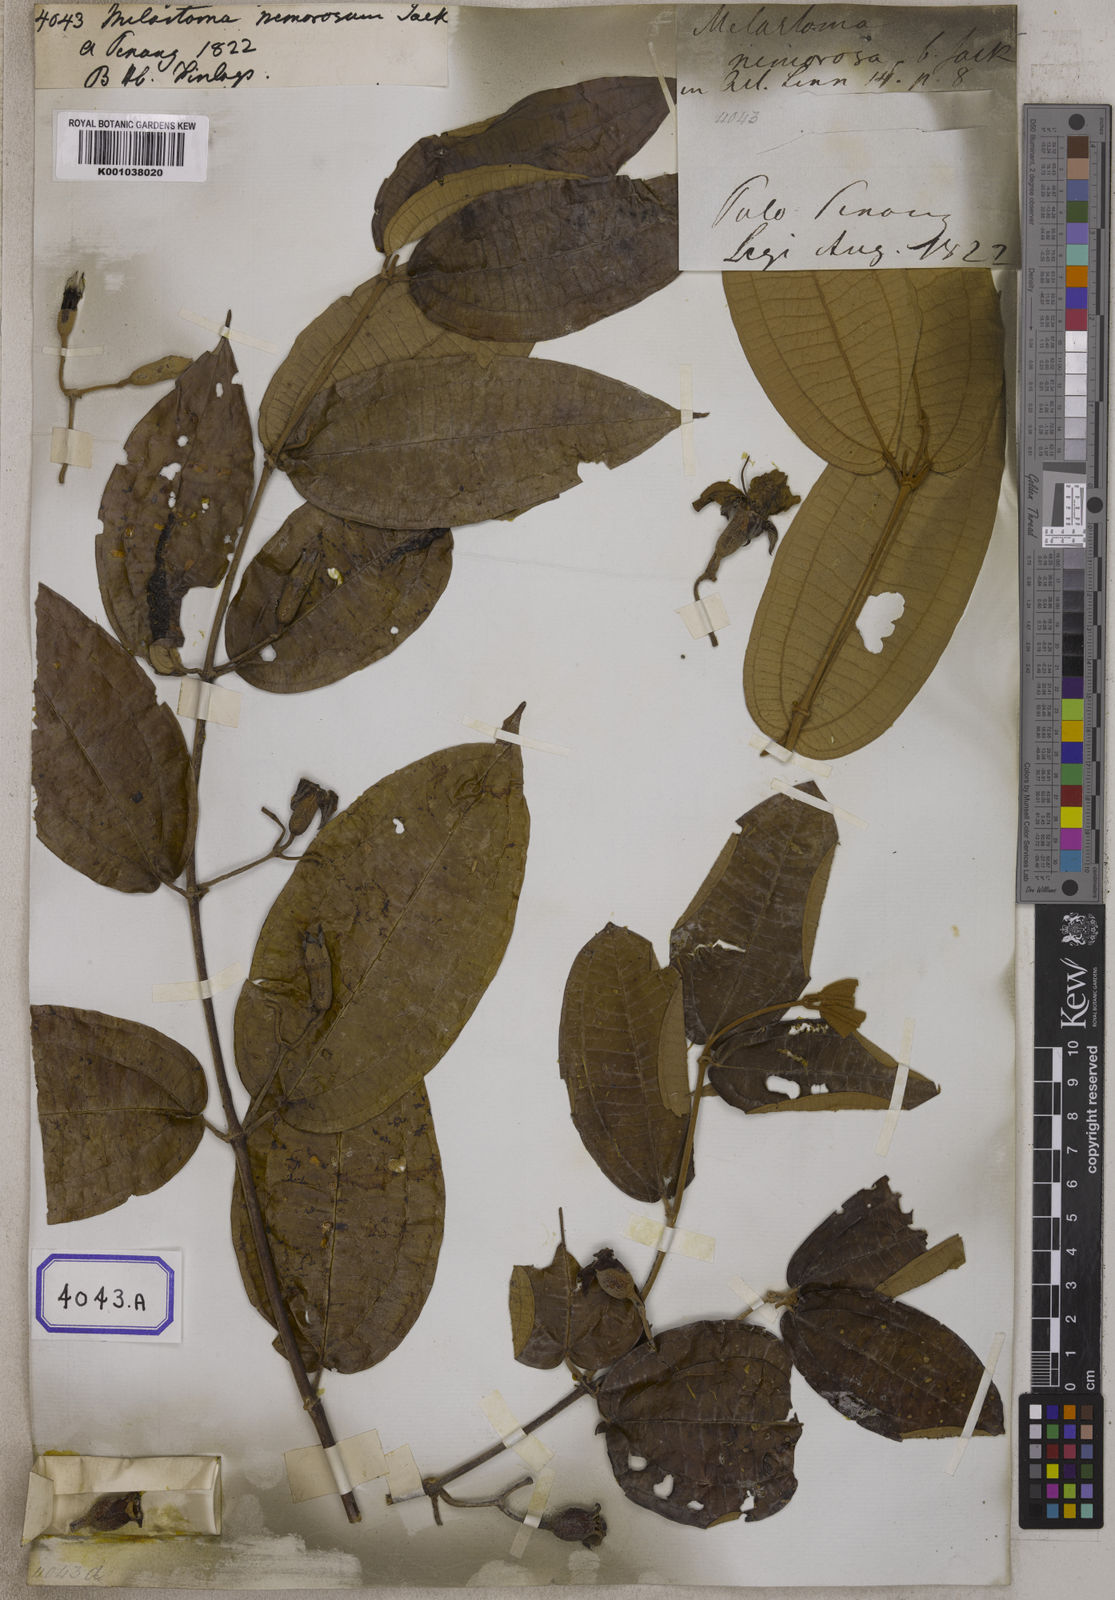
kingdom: Plantae
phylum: Tracheophyta
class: Magnoliopsida
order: Myrtales
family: Melastomataceae
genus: Macrolenes
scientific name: Macrolenes nemorosa
